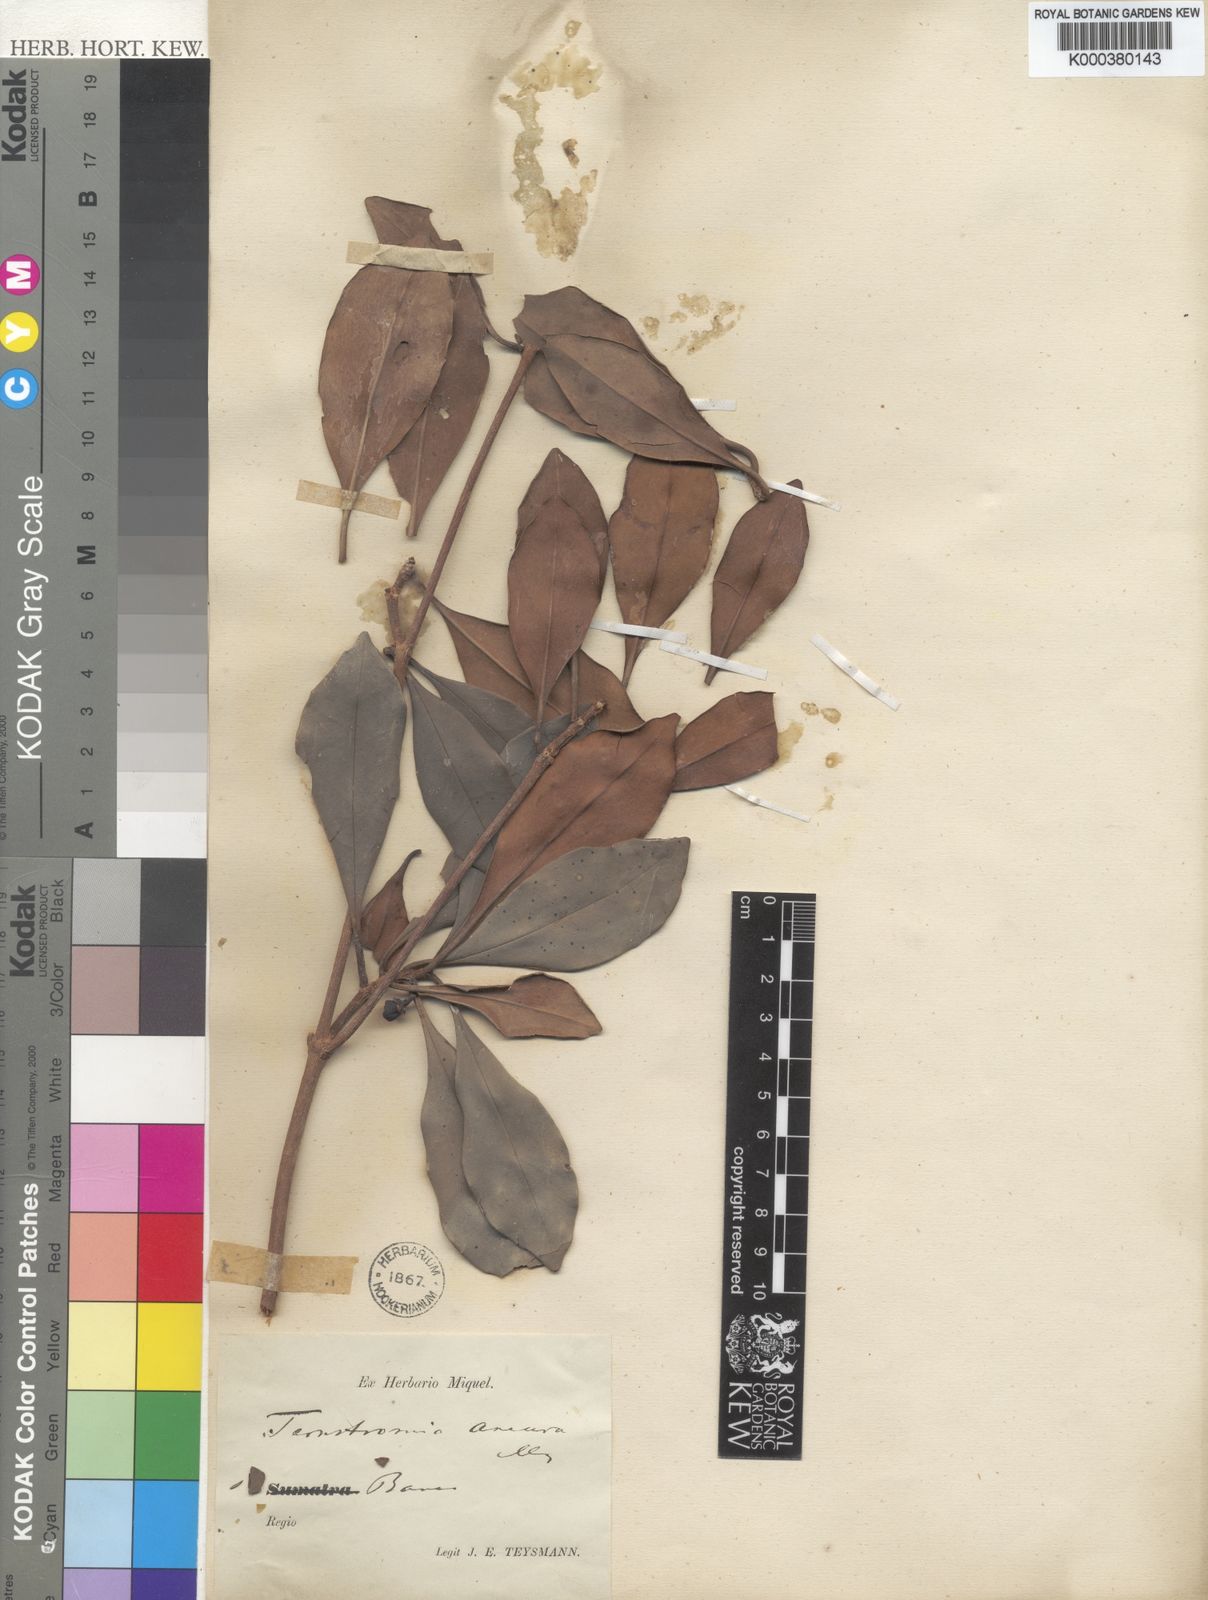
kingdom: Plantae
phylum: Tracheophyta
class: Magnoliopsida
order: Ericales
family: Pentaphylacaceae
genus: Ternstroemia
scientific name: Ternstroemia gymnanthera
